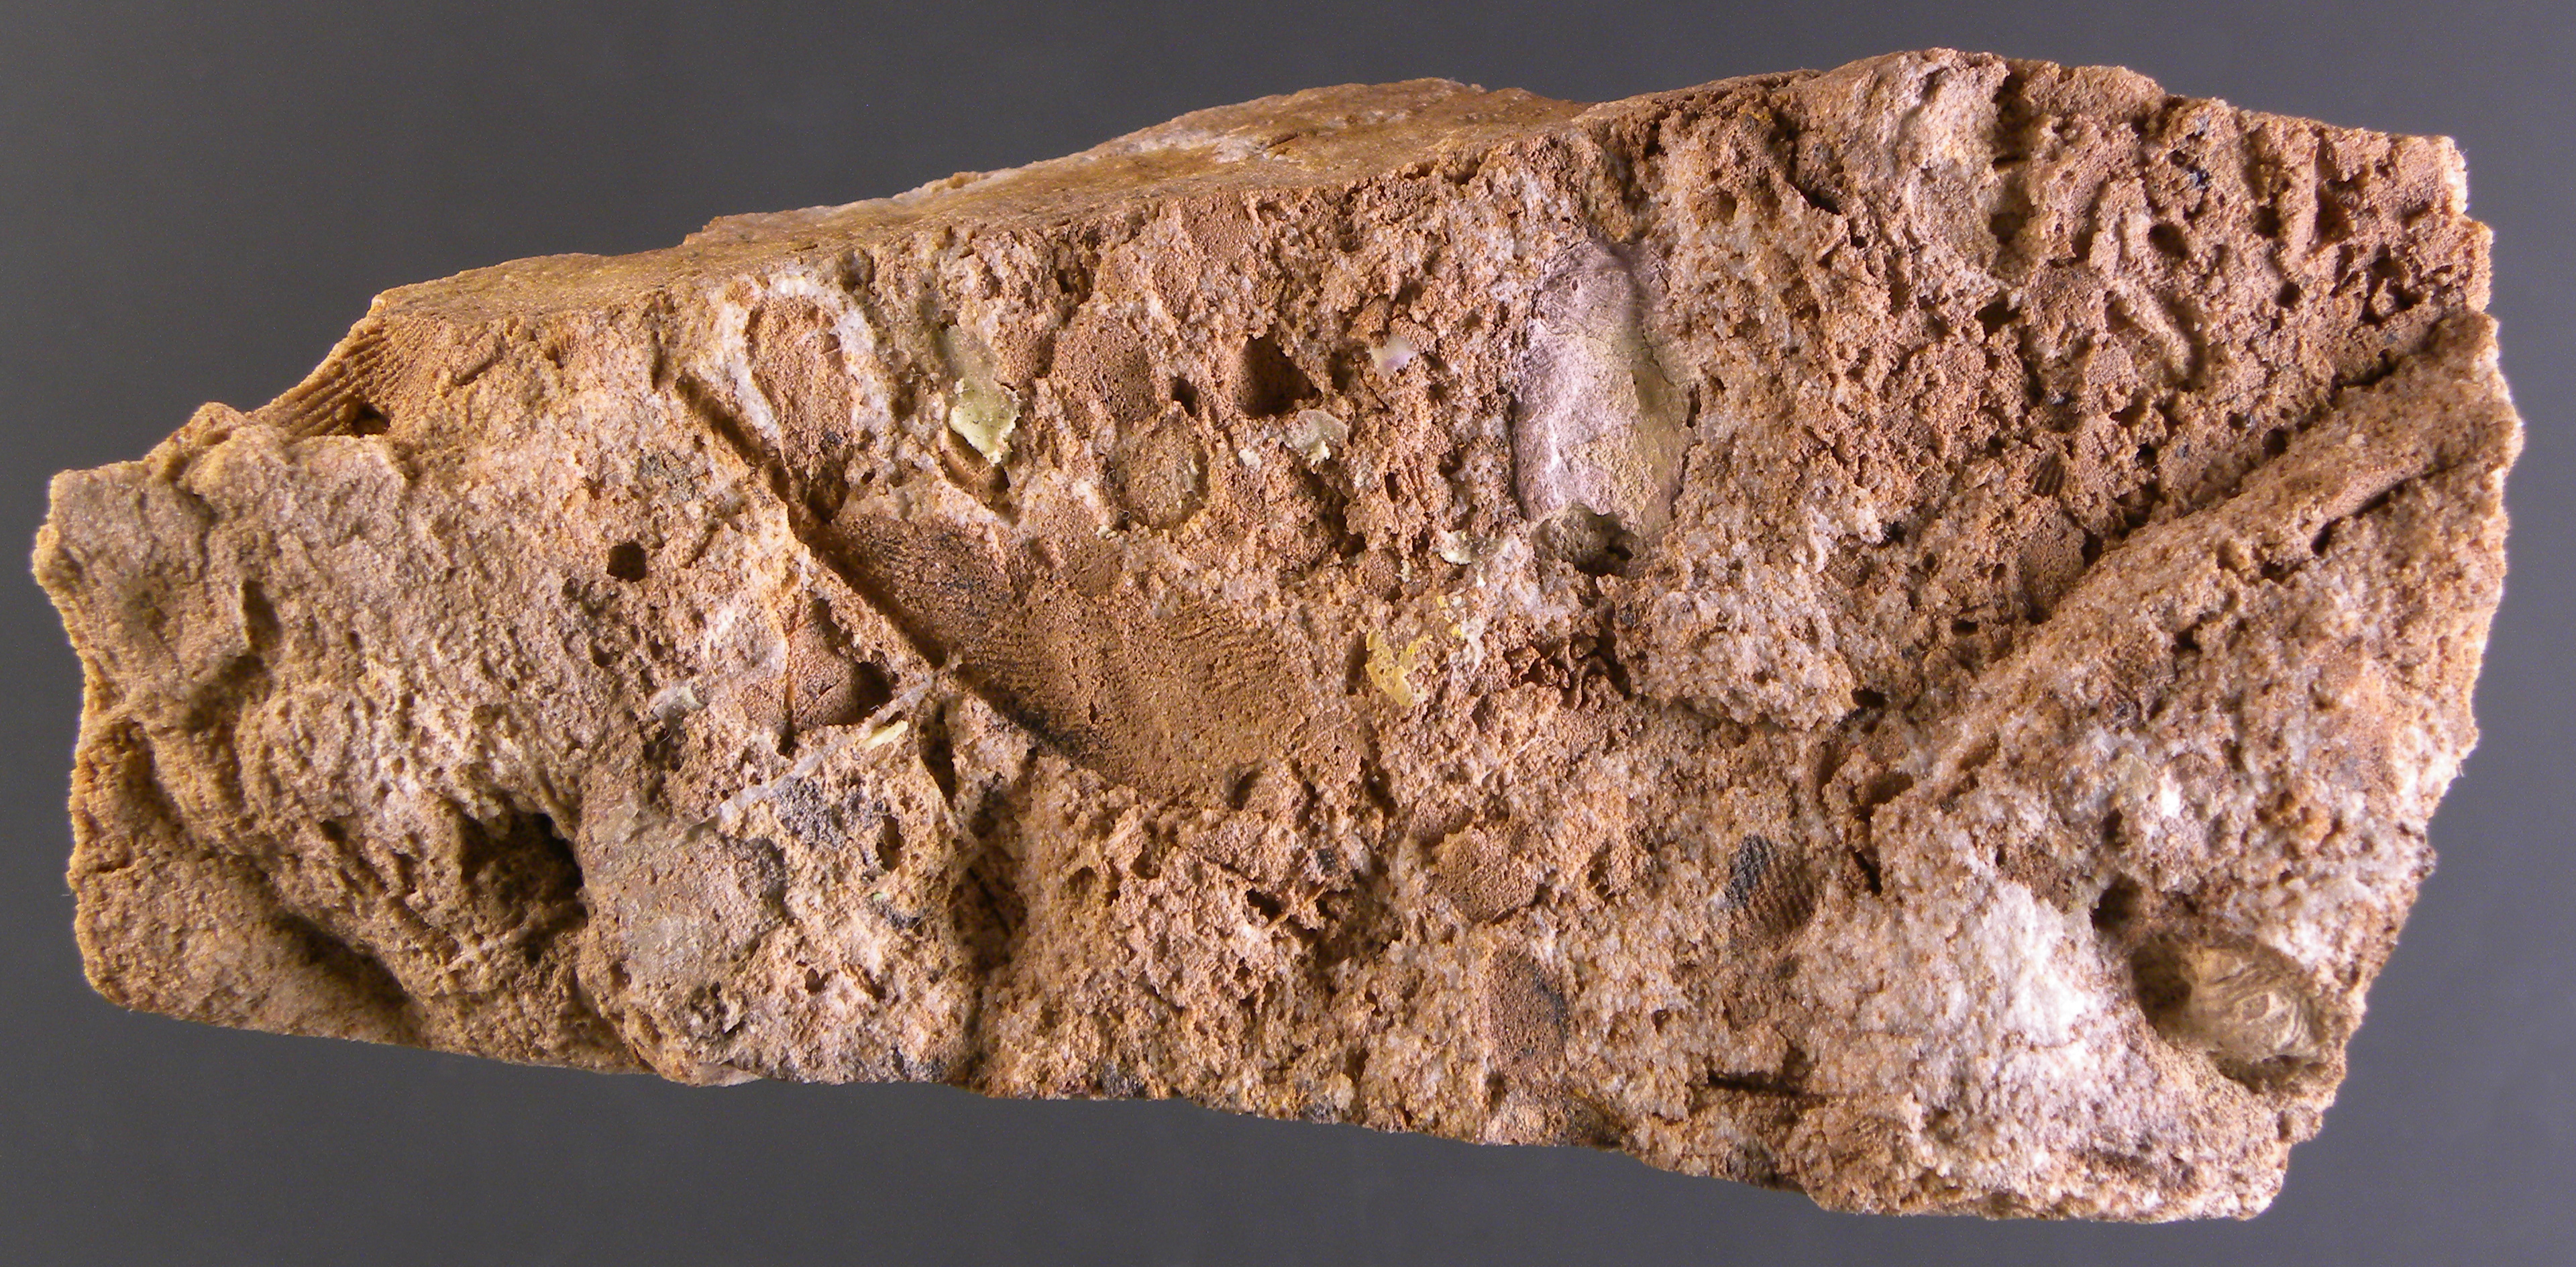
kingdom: Animalia
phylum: Mollusca
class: Bivalvia
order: Modiomorphida
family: Modiomorphidae
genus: Goniophora
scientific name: Goniophora
